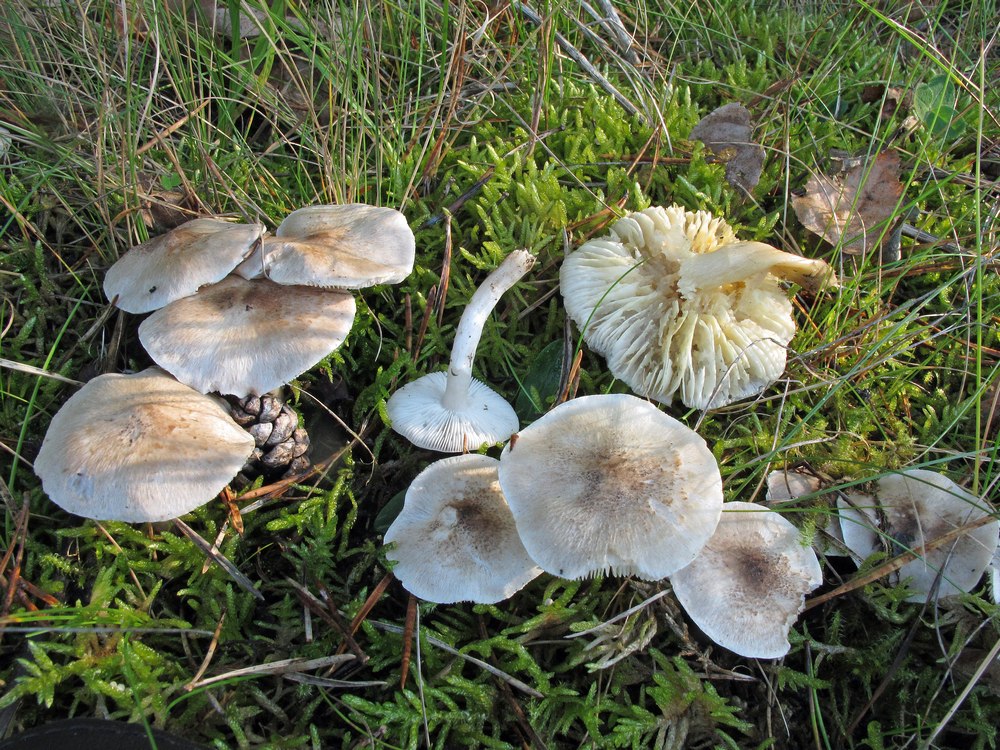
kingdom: Fungi
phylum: Basidiomycota
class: Agaricomycetes
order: Agaricales
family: Tricholomataceae
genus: Tricholoma
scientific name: Tricholoma argyraceum
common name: slør-ridderhat
